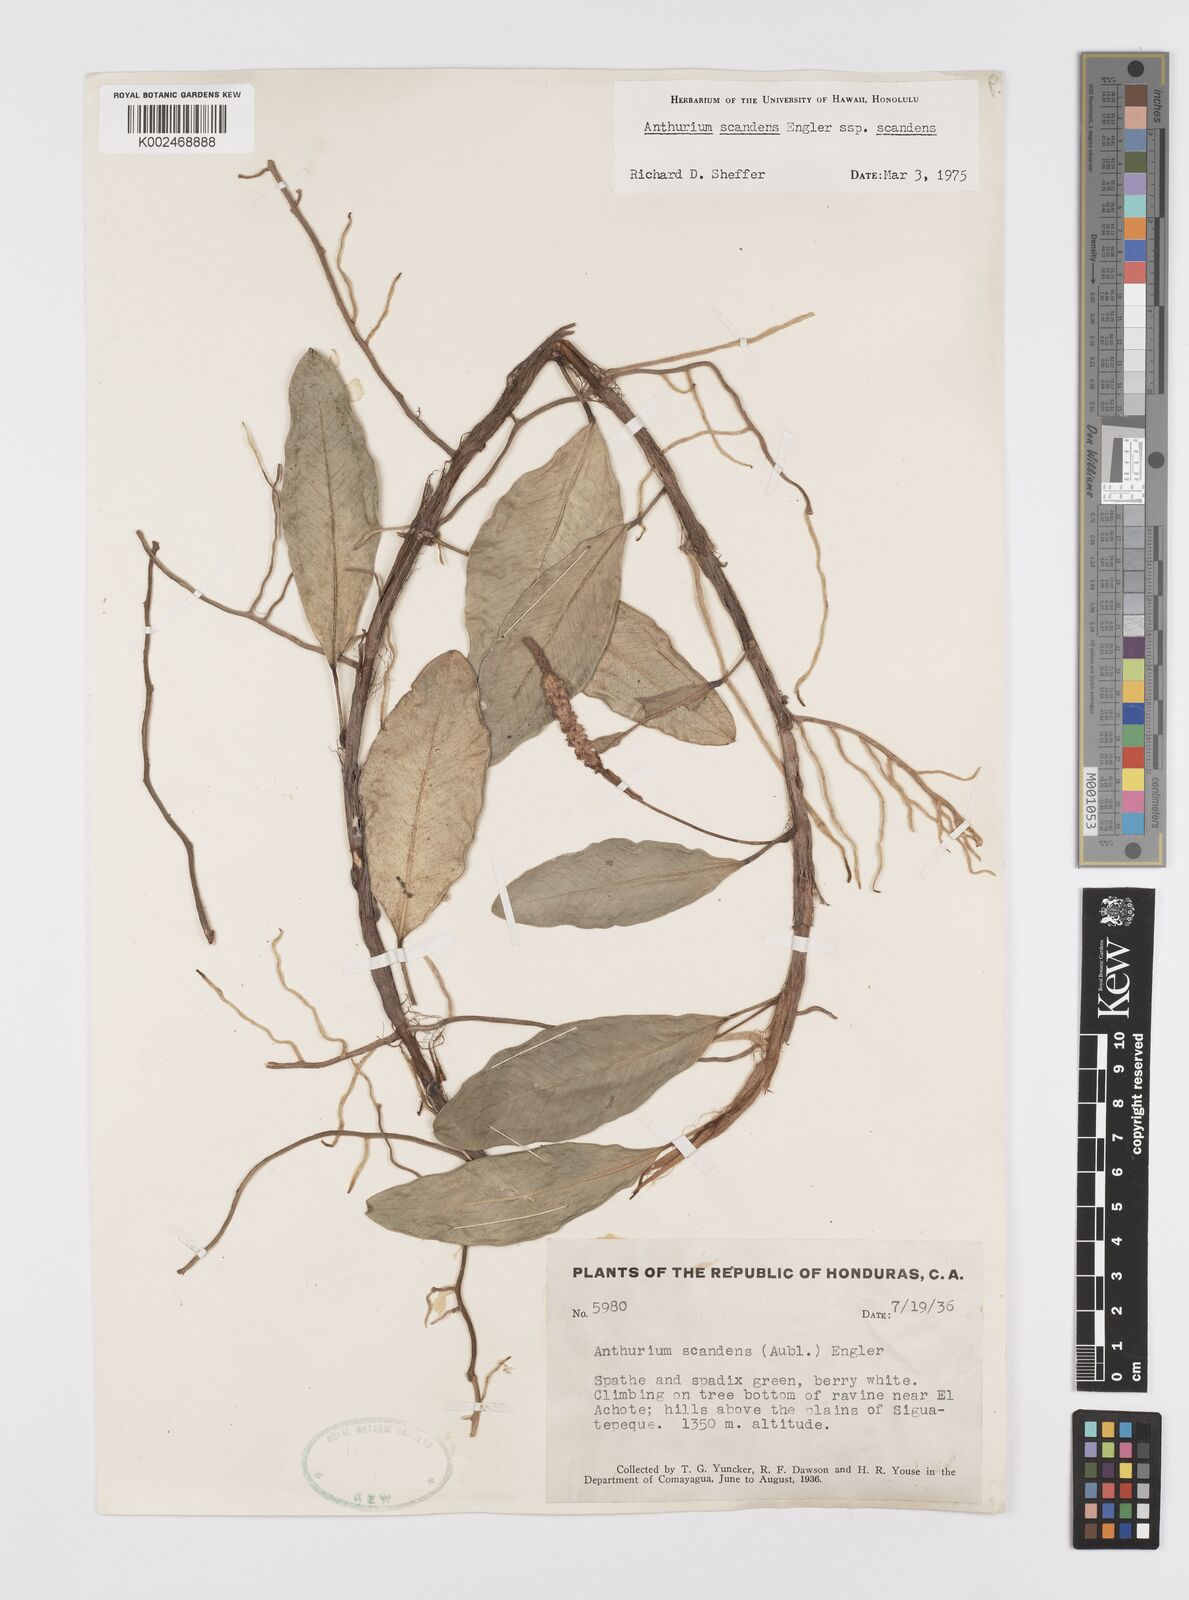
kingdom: Plantae
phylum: Tracheophyta
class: Liliopsida
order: Alismatales
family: Araceae
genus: Anthurium
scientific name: Anthurium scandens
